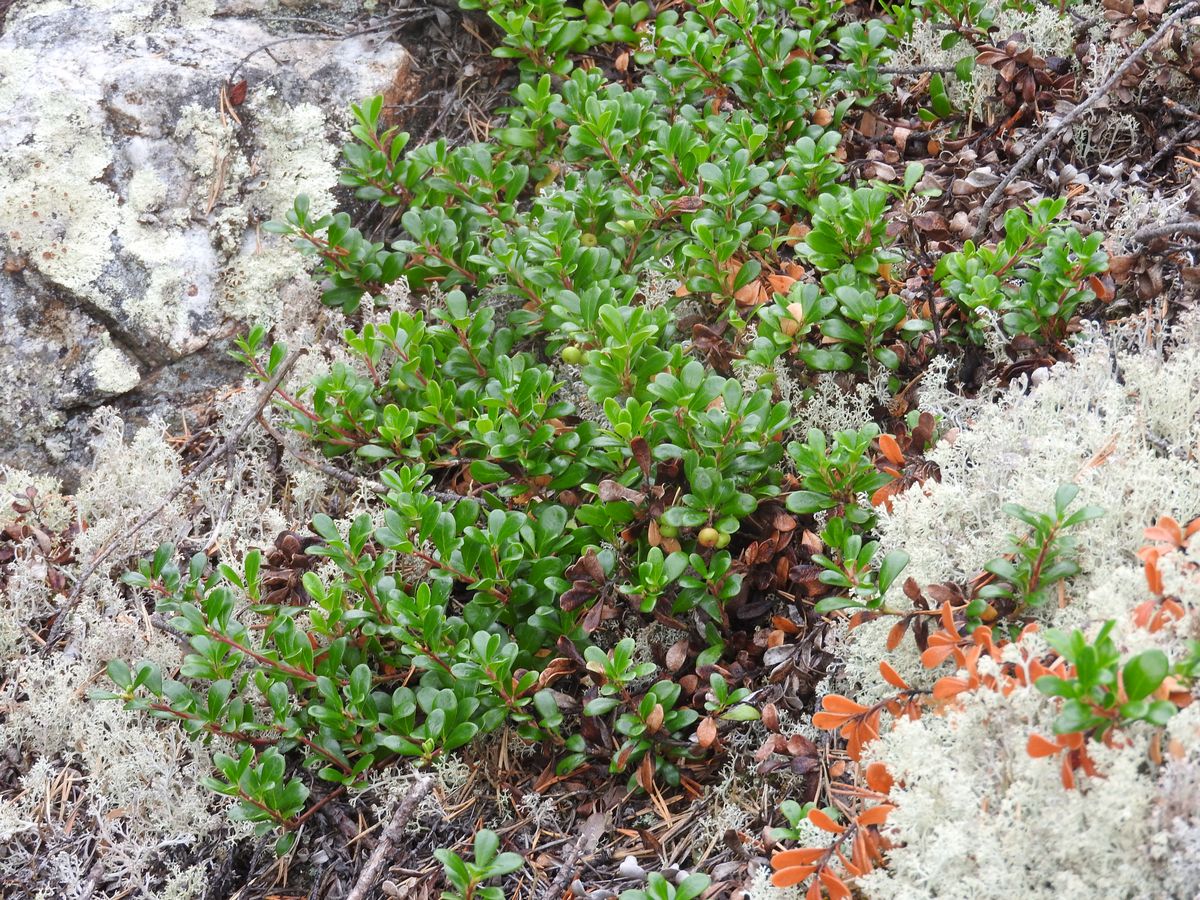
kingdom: Plantae
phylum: Tracheophyta
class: Magnoliopsida
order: Ericales
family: Ericaceae
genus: Arctostaphylos
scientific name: Arctostaphylos uva-ursi
